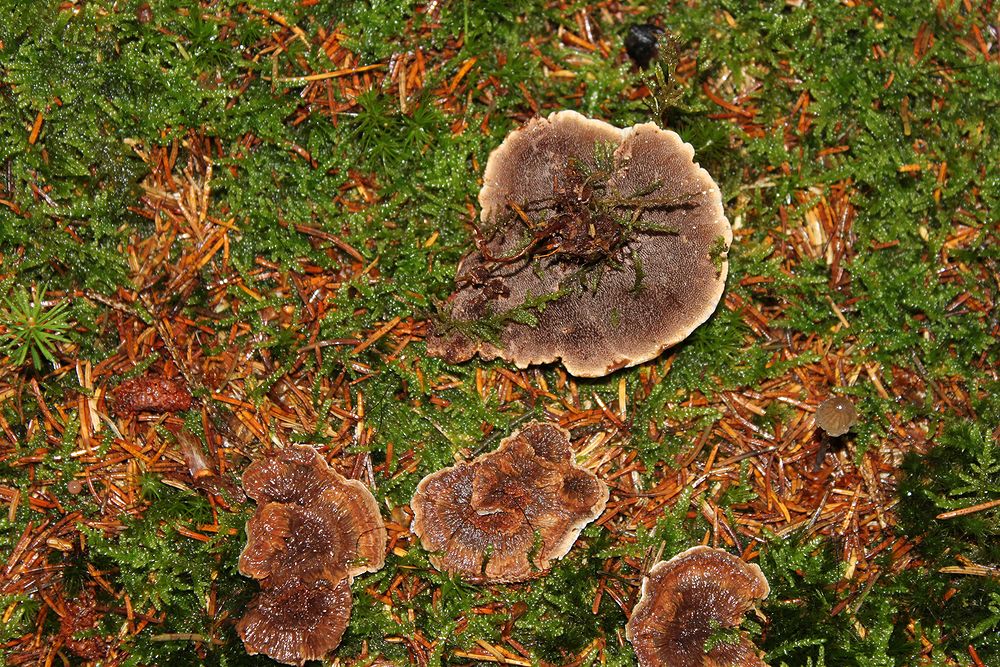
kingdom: Fungi
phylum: Basidiomycota
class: Agaricomycetes
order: Thelephorales
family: Bankeraceae
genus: Hydnellum
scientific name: Hydnellum concrescens
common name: bæltet korkpigsvamp
